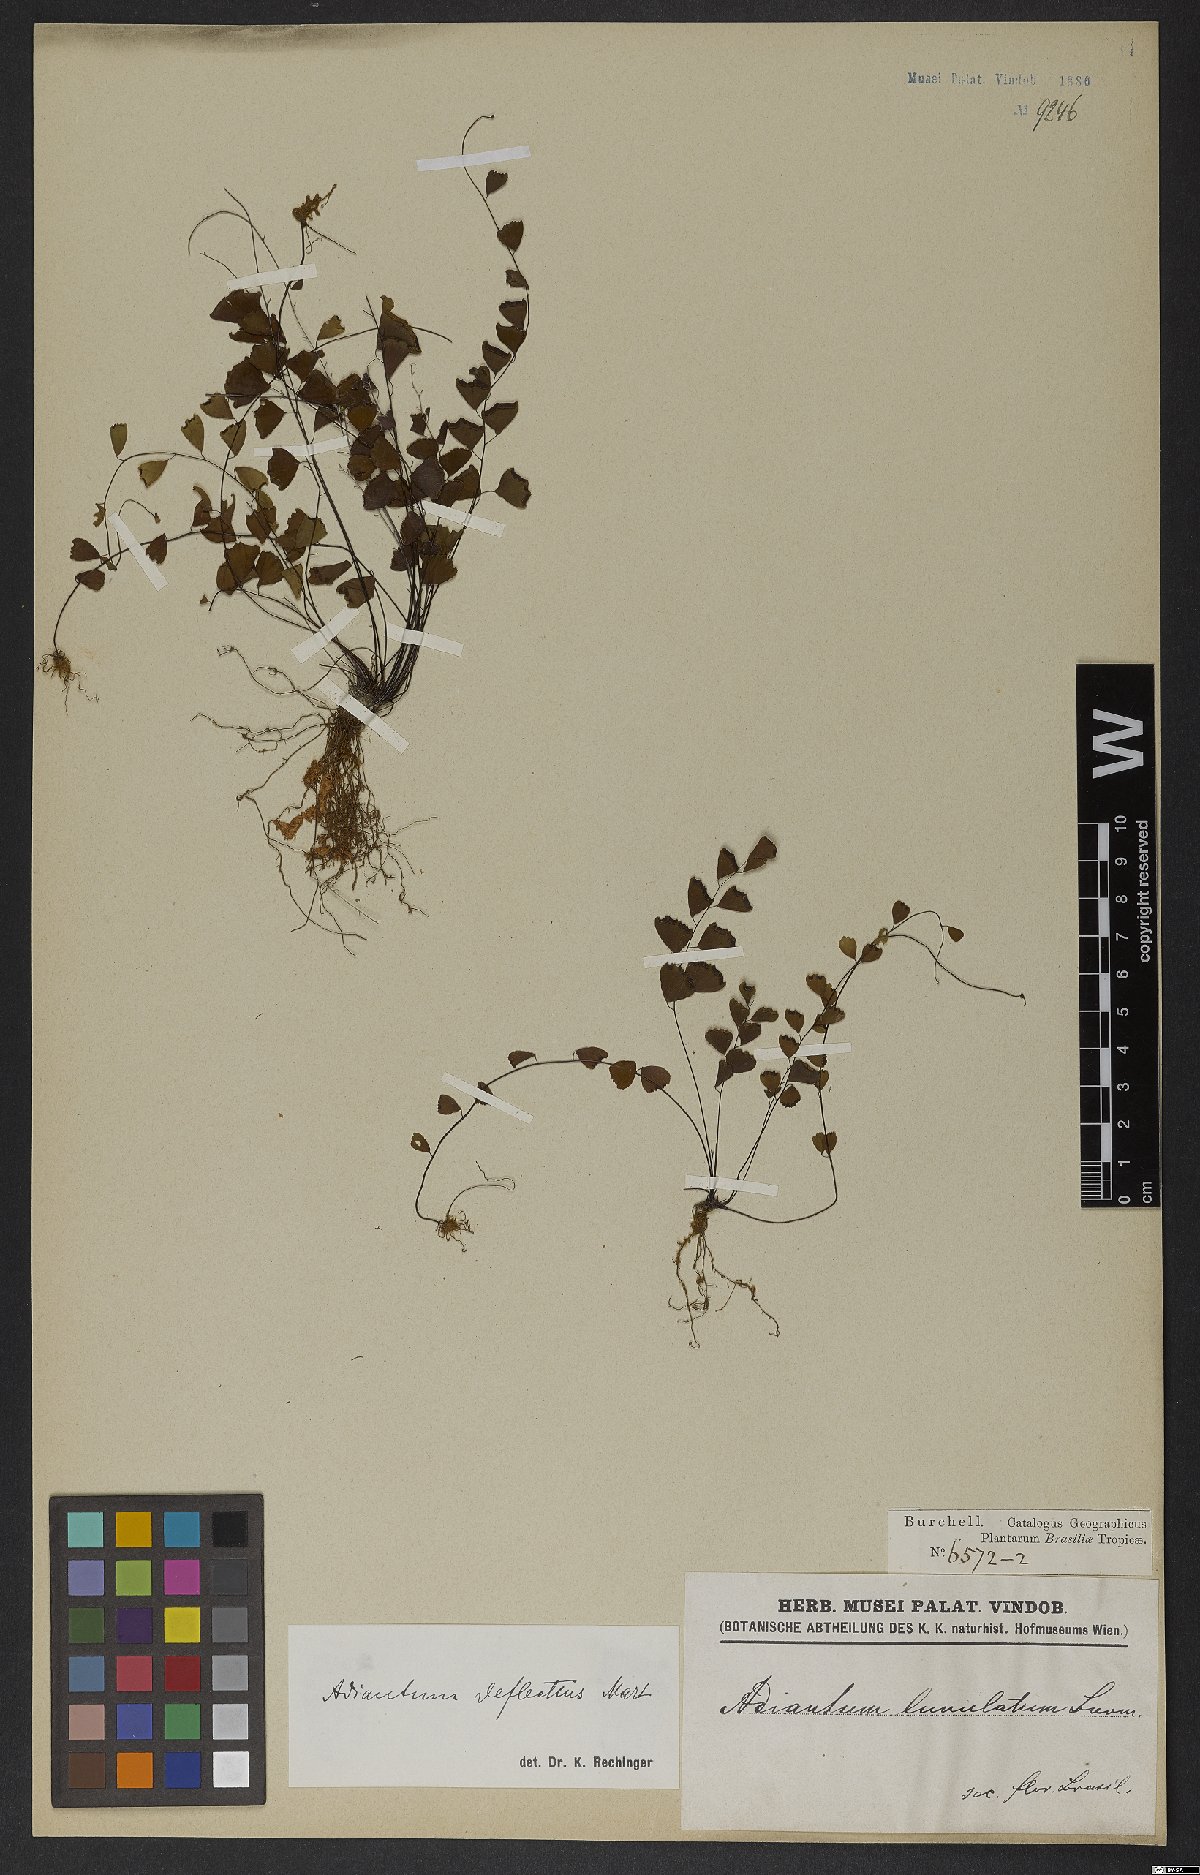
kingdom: Plantae
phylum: Tracheophyta
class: Polypodiopsida
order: Polypodiales
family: Pteridaceae
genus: Adiantum
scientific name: Adiantum deflectens
